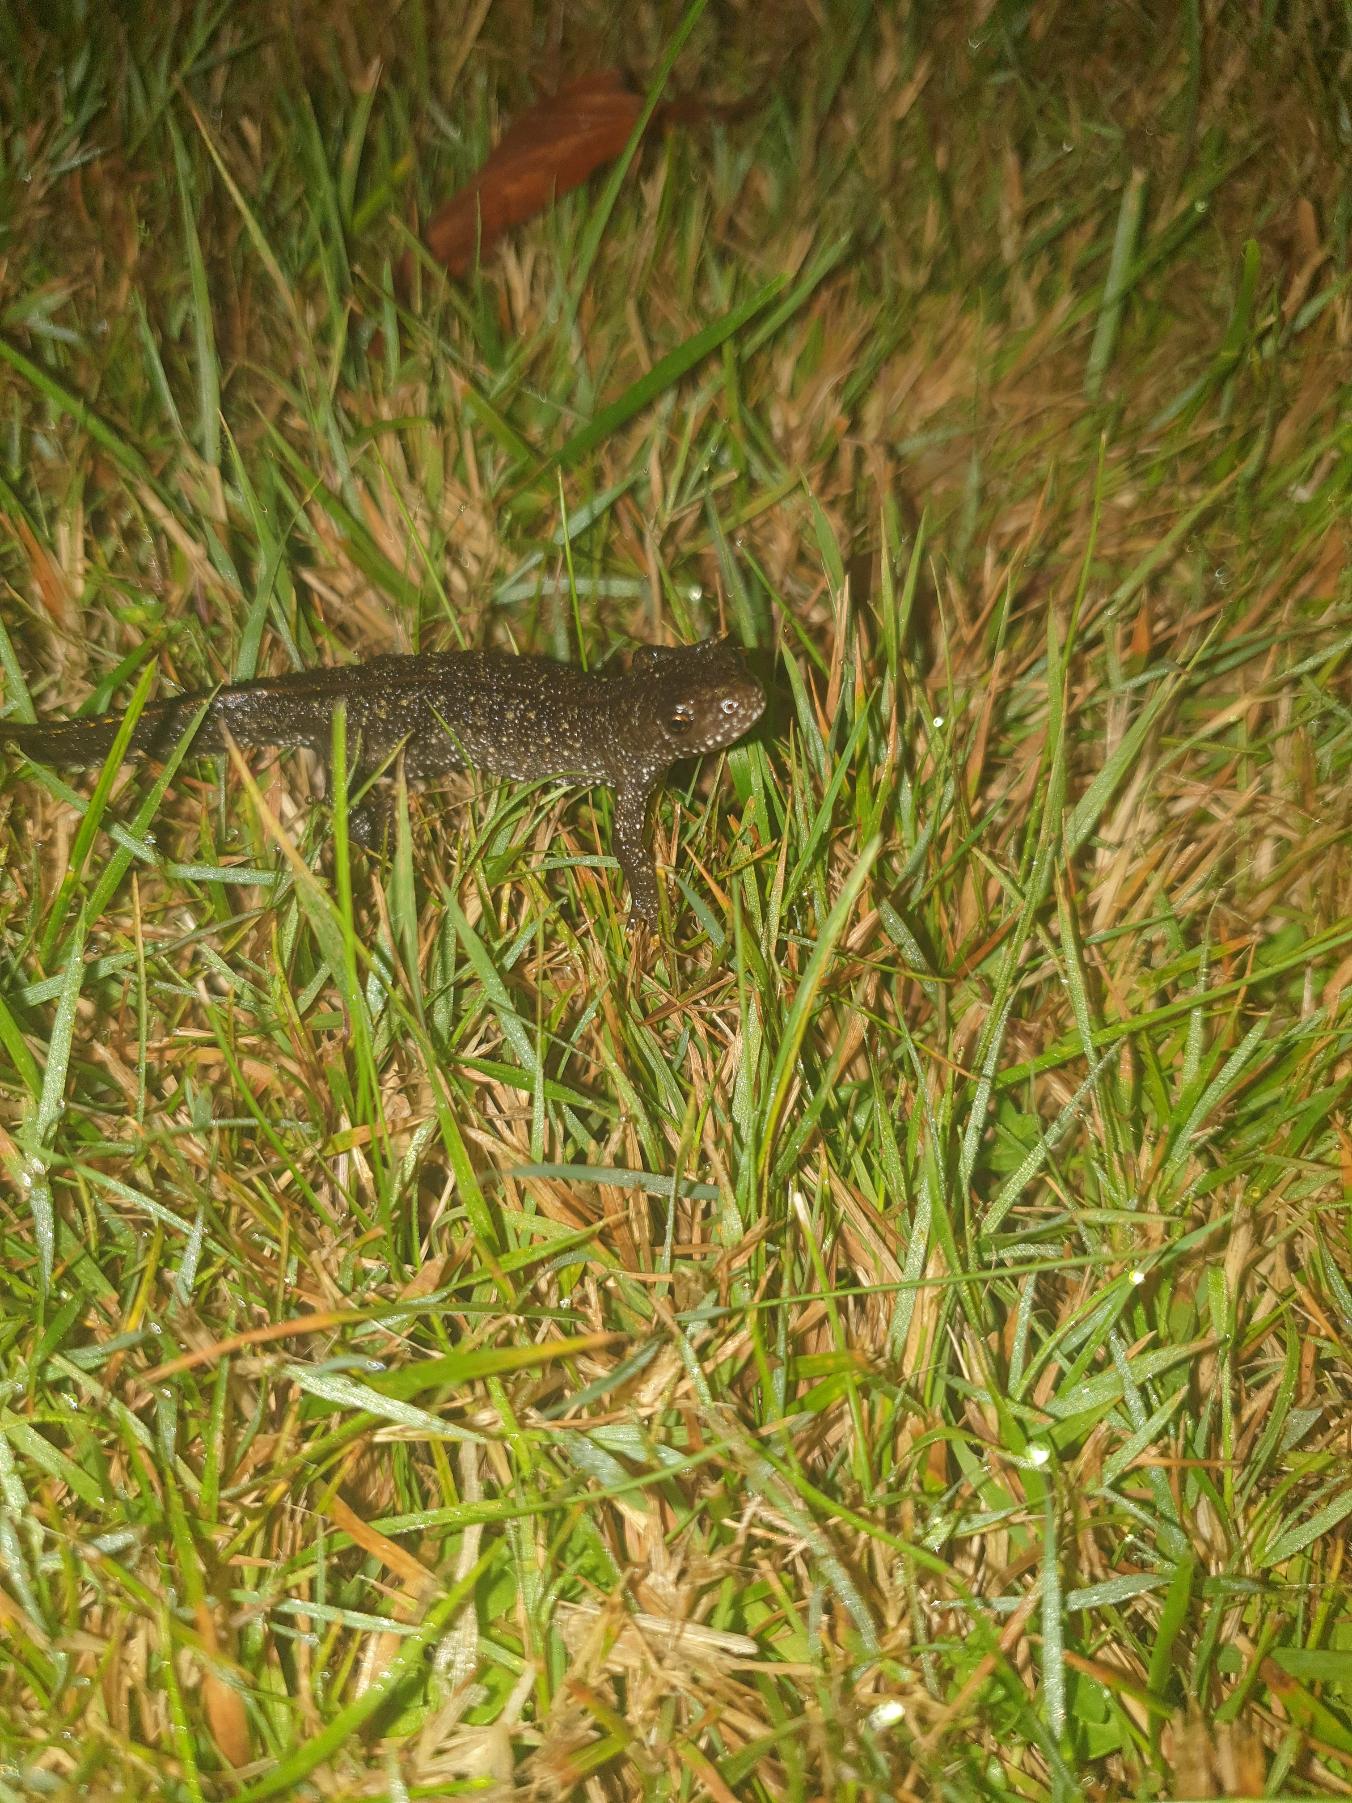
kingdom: Animalia
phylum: Chordata
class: Amphibia
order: Caudata
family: Salamandridae
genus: Triturus
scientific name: Triturus cristatus
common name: Stor vandsalamander
